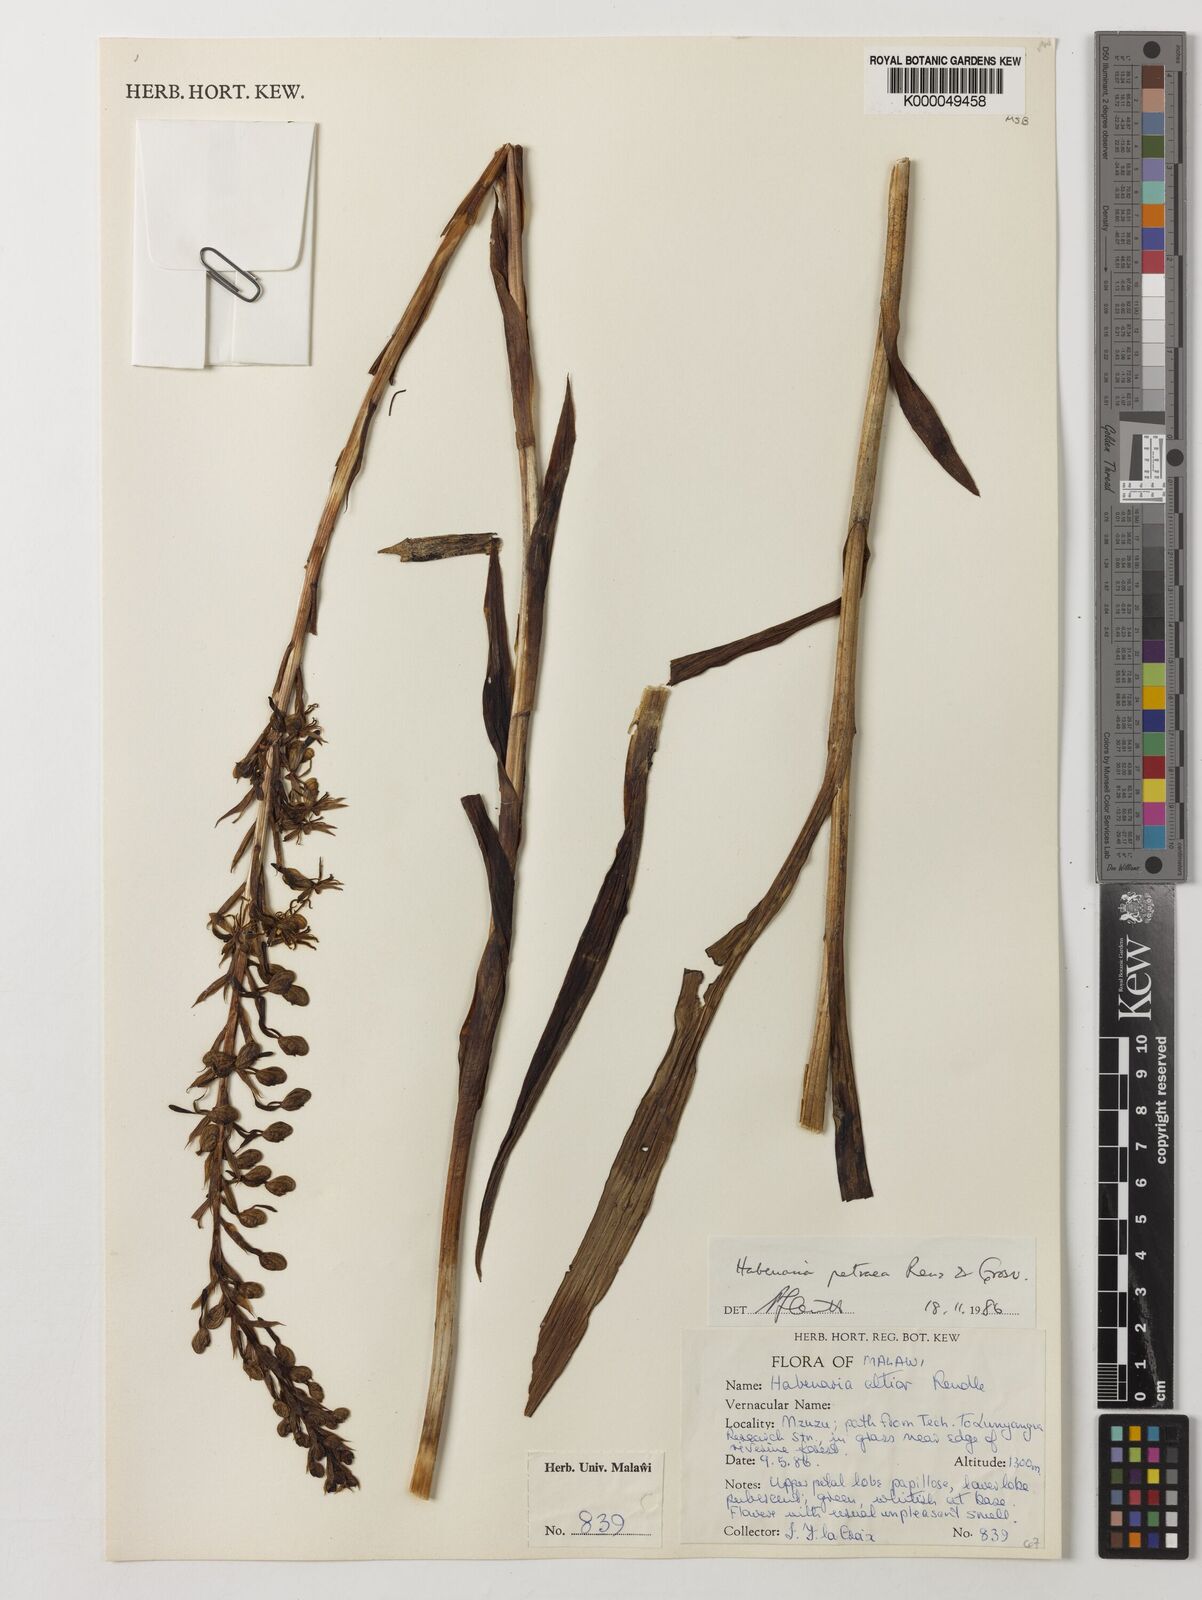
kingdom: Plantae
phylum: Tracheophyta
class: Liliopsida
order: Asparagales
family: Orchidaceae
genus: Habenaria
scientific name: Habenaria petraea
